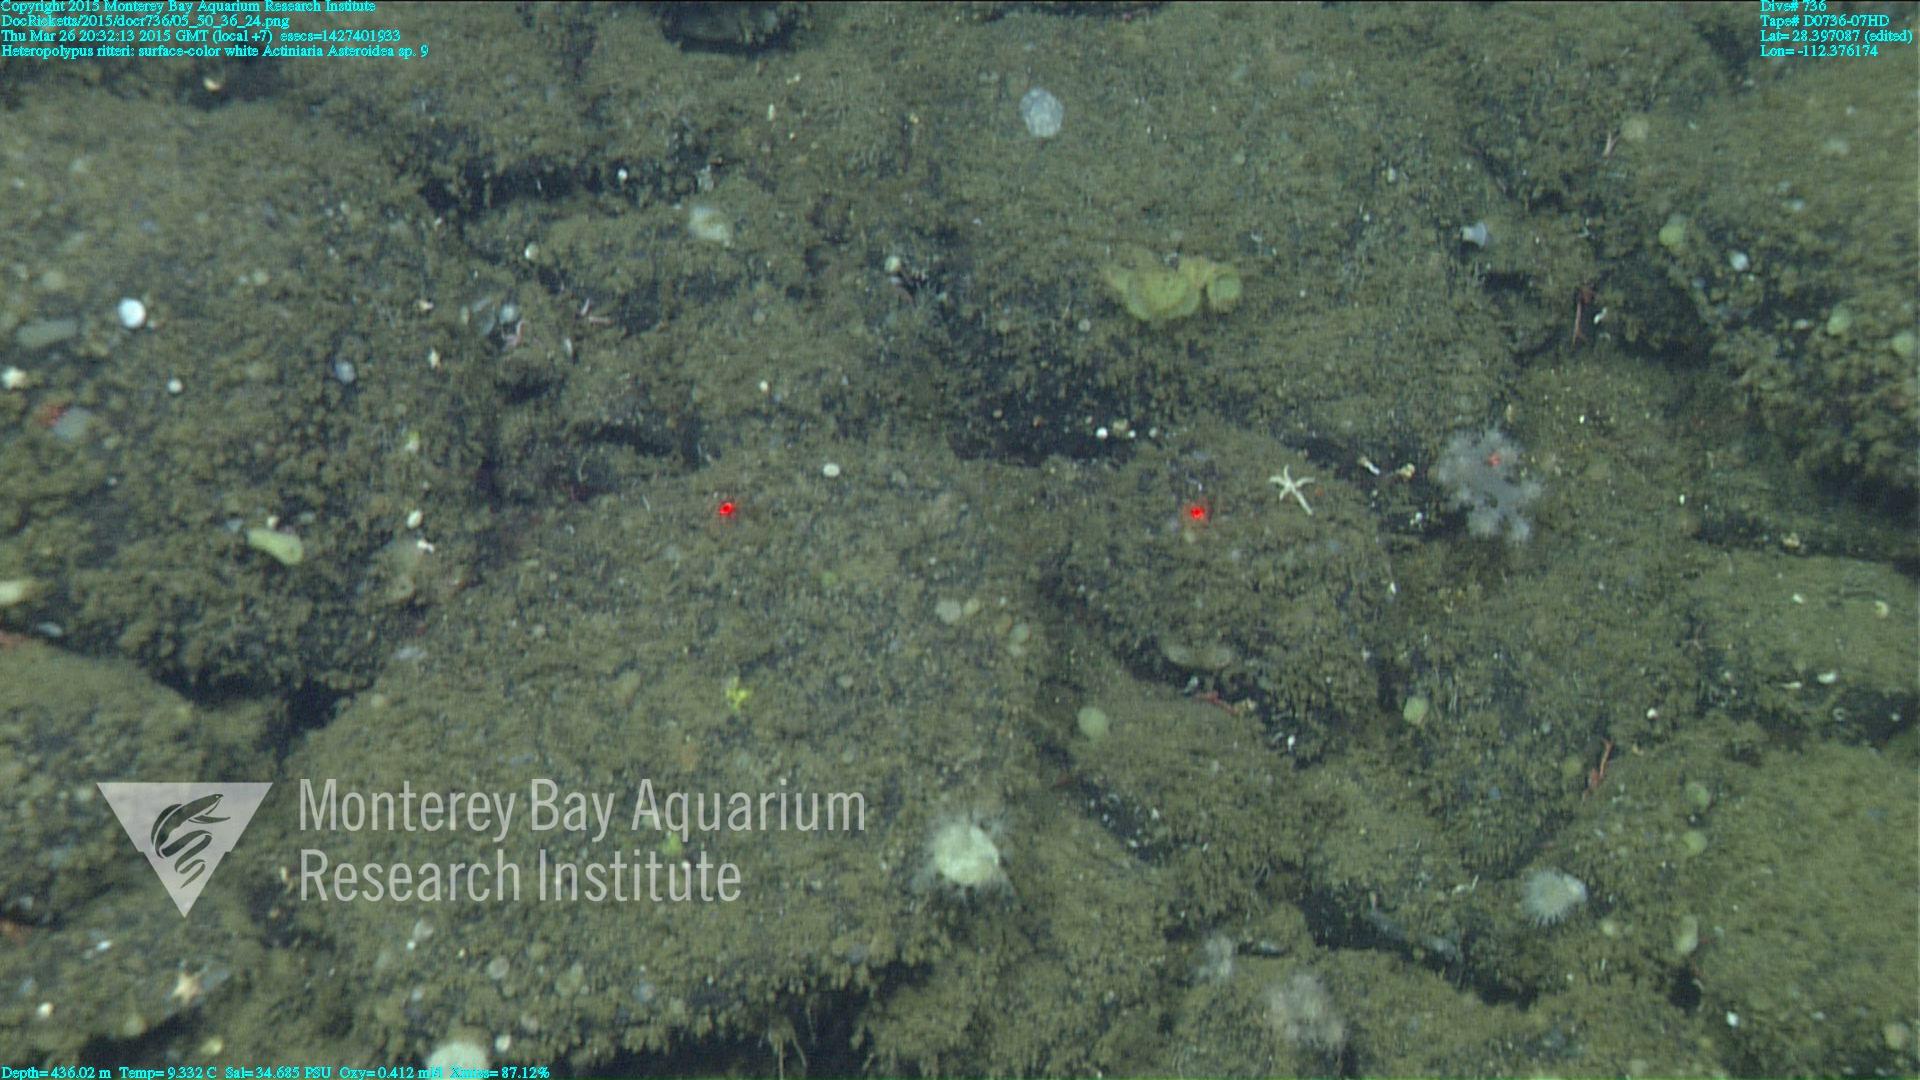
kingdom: Animalia
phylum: Cnidaria
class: Anthozoa
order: Scleralcyonacea
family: Coralliidae
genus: Heteropolypus
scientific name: Heteropolypus ritteri
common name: Ritter's soft coral
